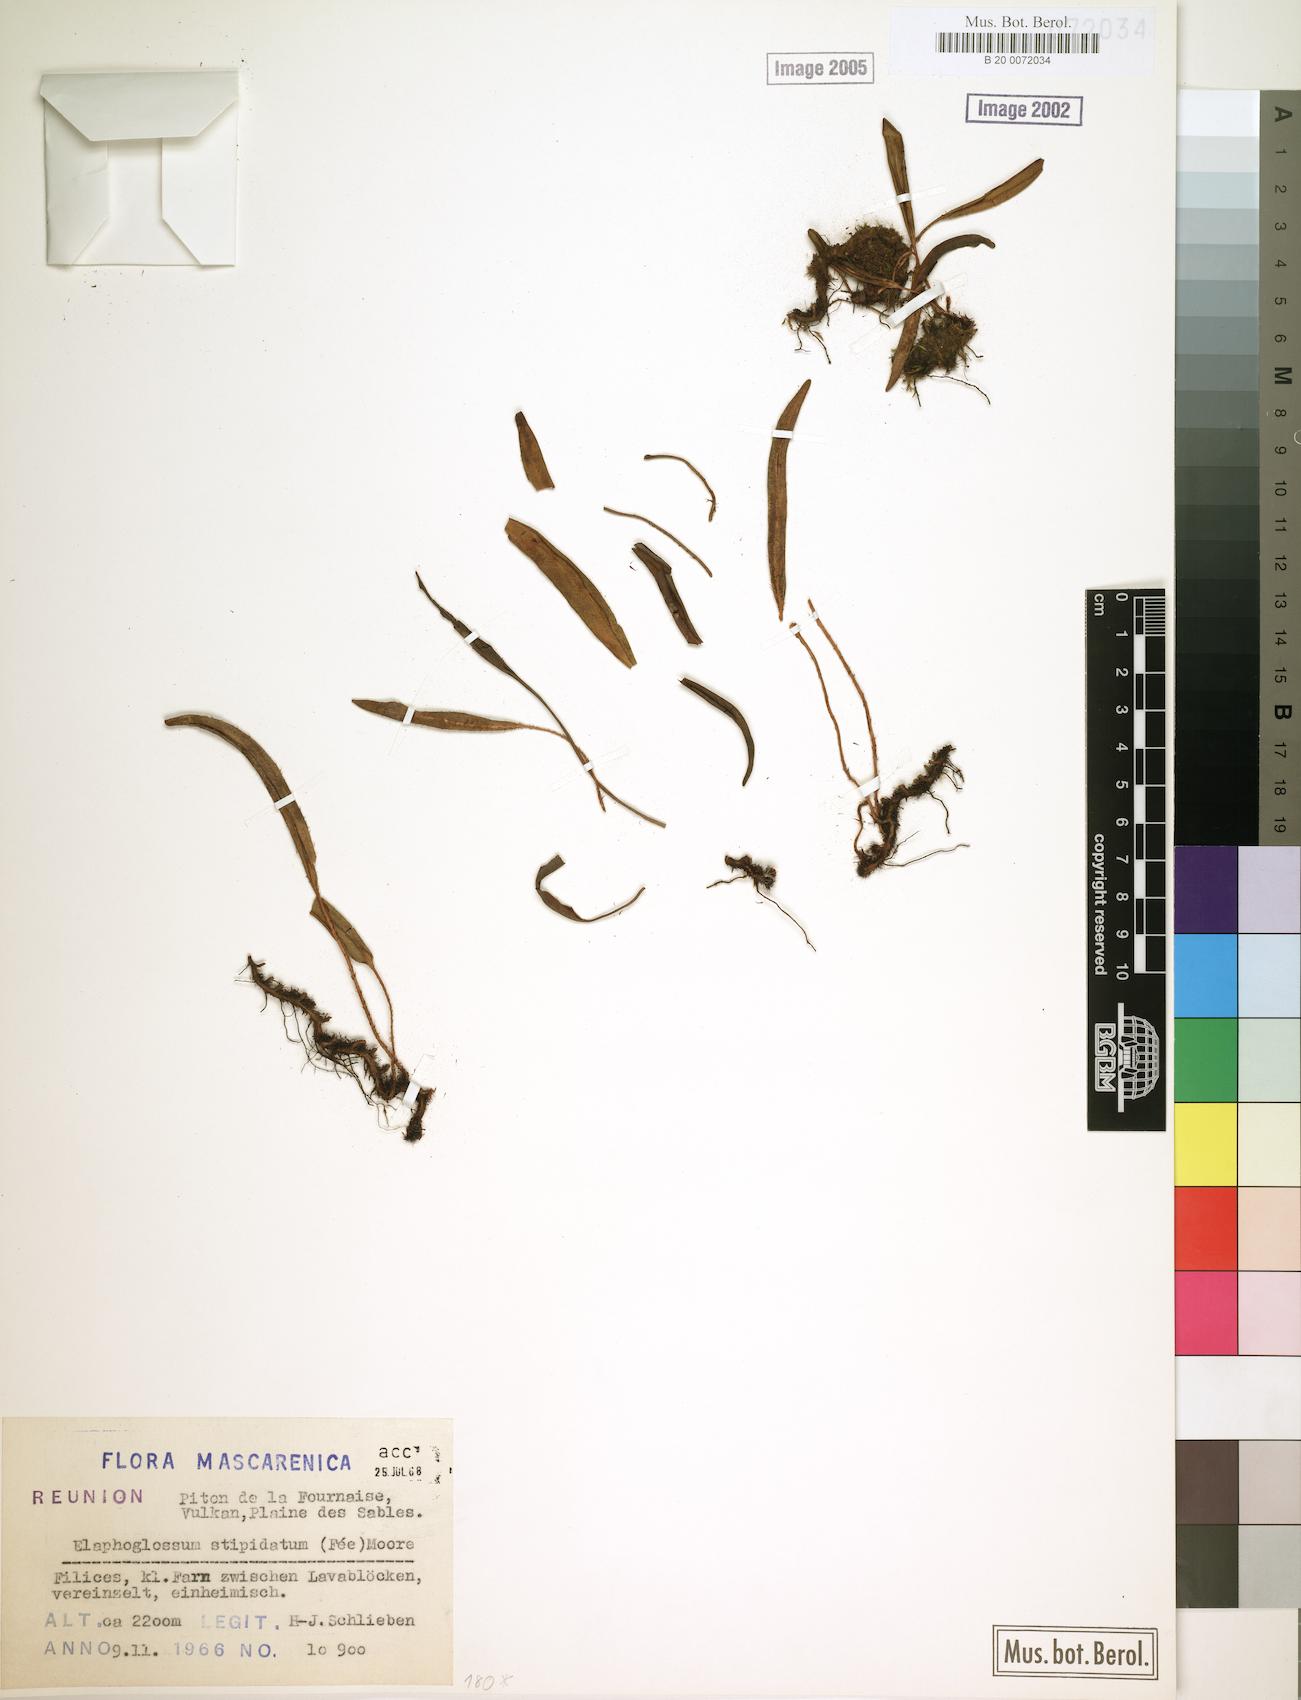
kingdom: Plantae
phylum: Tracheophyta
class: Polypodiopsida
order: Polypodiales
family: Dryopteridaceae
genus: Elaphoglossum
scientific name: Elaphoglossum stipitatum
